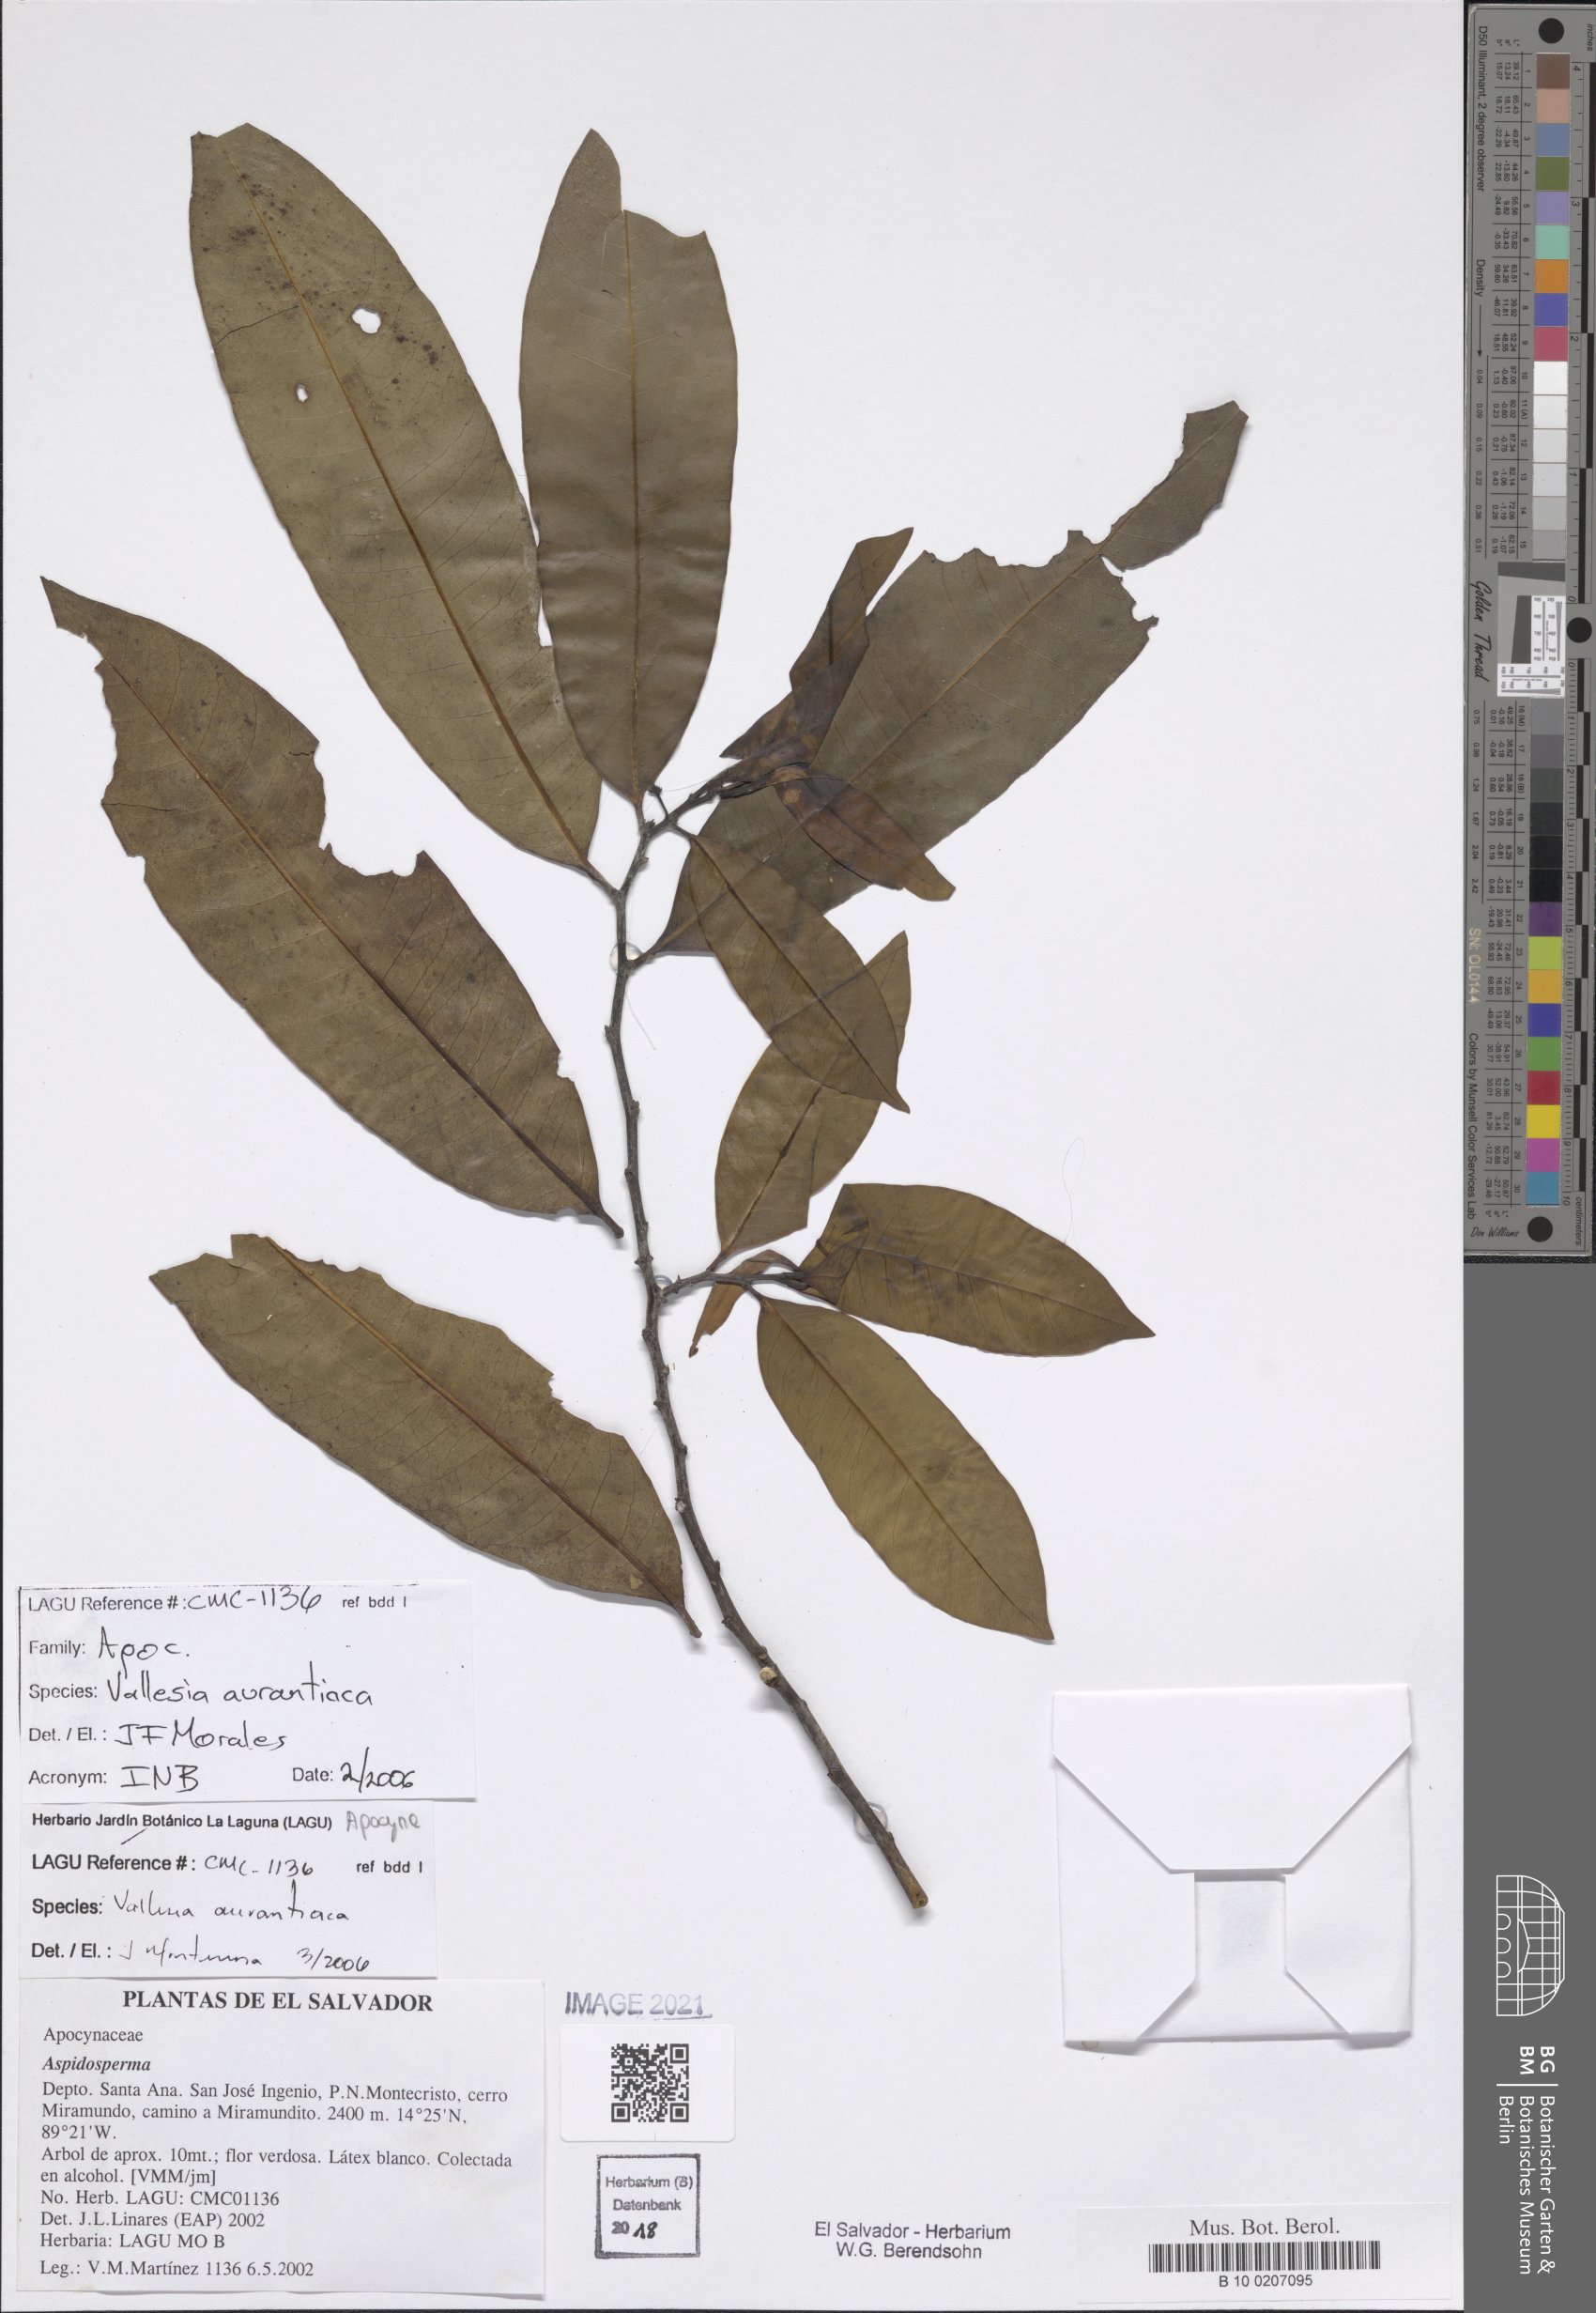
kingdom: Plantae
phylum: Tracheophyta
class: Magnoliopsida
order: Gentianales
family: Apocynaceae
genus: Vallesia
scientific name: Vallesia aurantiaca
